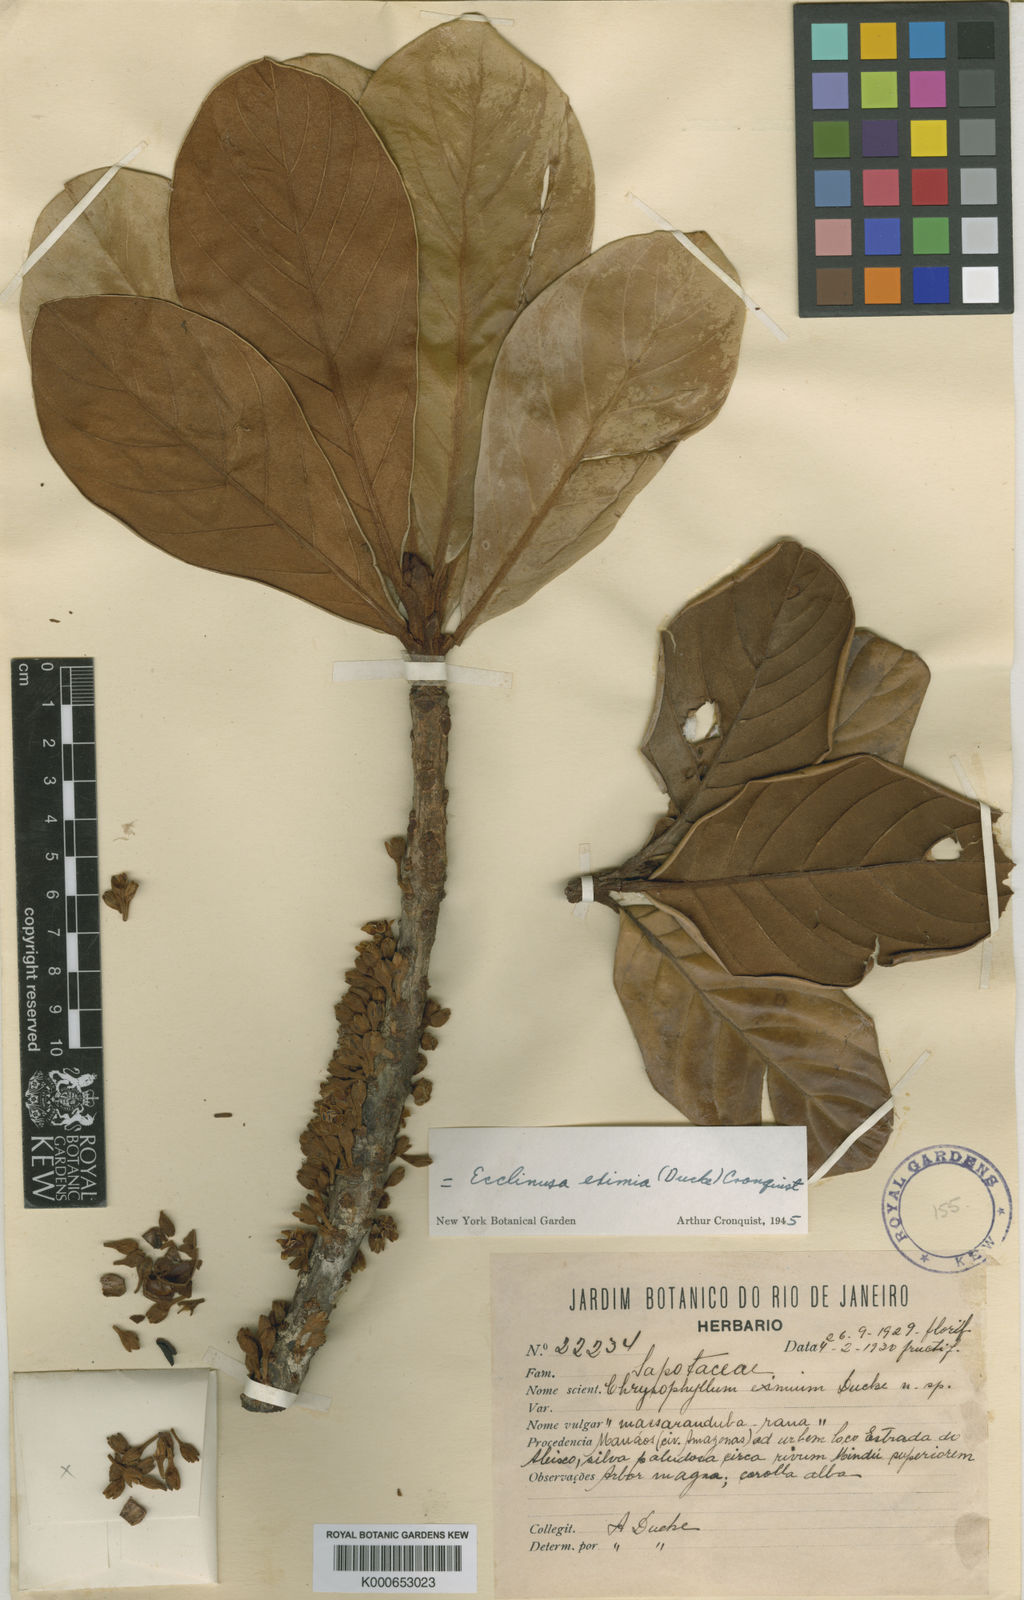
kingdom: Plantae
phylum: Tracheophyta
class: Magnoliopsida
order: Ericales
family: Sapotaceae
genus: Chrysophyllum
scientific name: Chrysophyllum eximium
